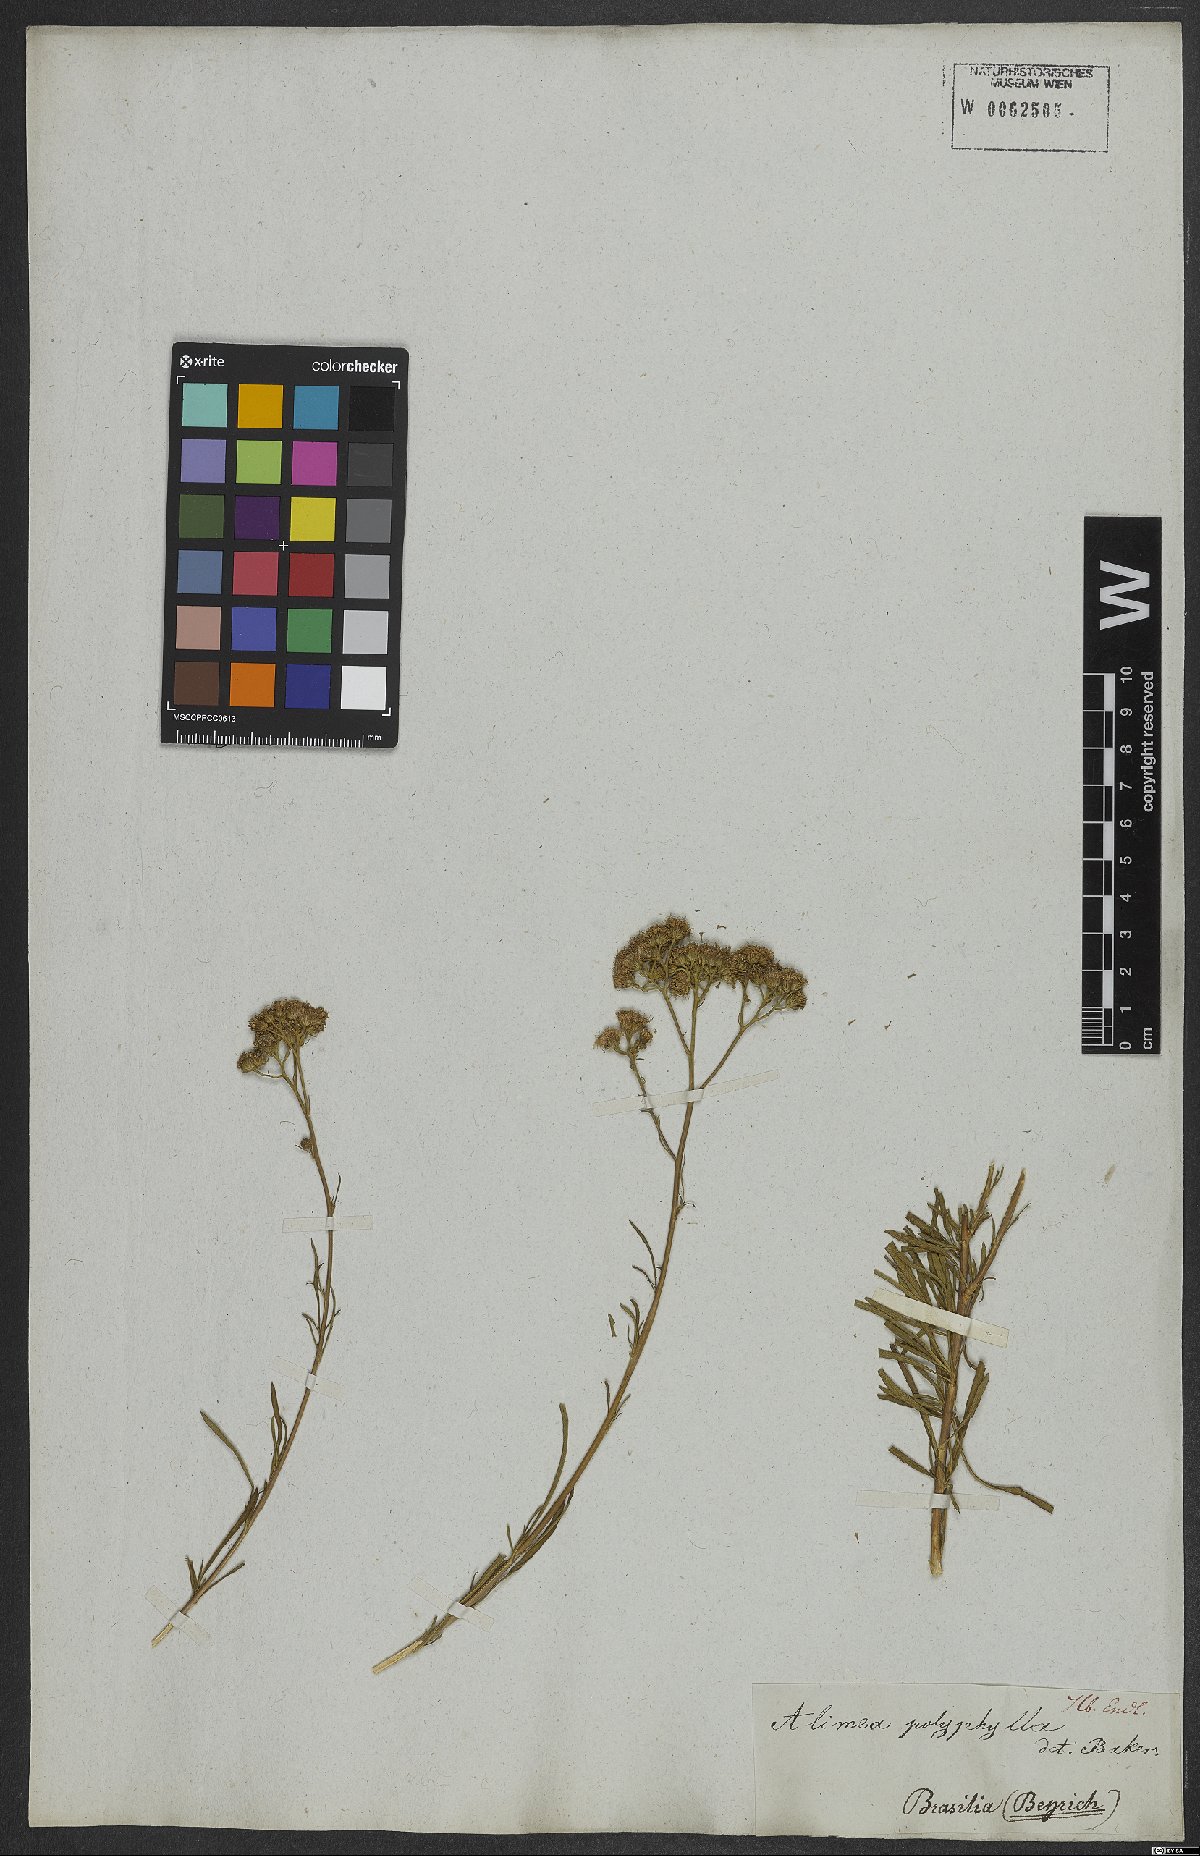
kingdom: Plantae
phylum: Tracheophyta
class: Magnoliopsida
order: Asterales
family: Asteraceae
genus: Ageratum
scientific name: Ageratum fastigiatum
